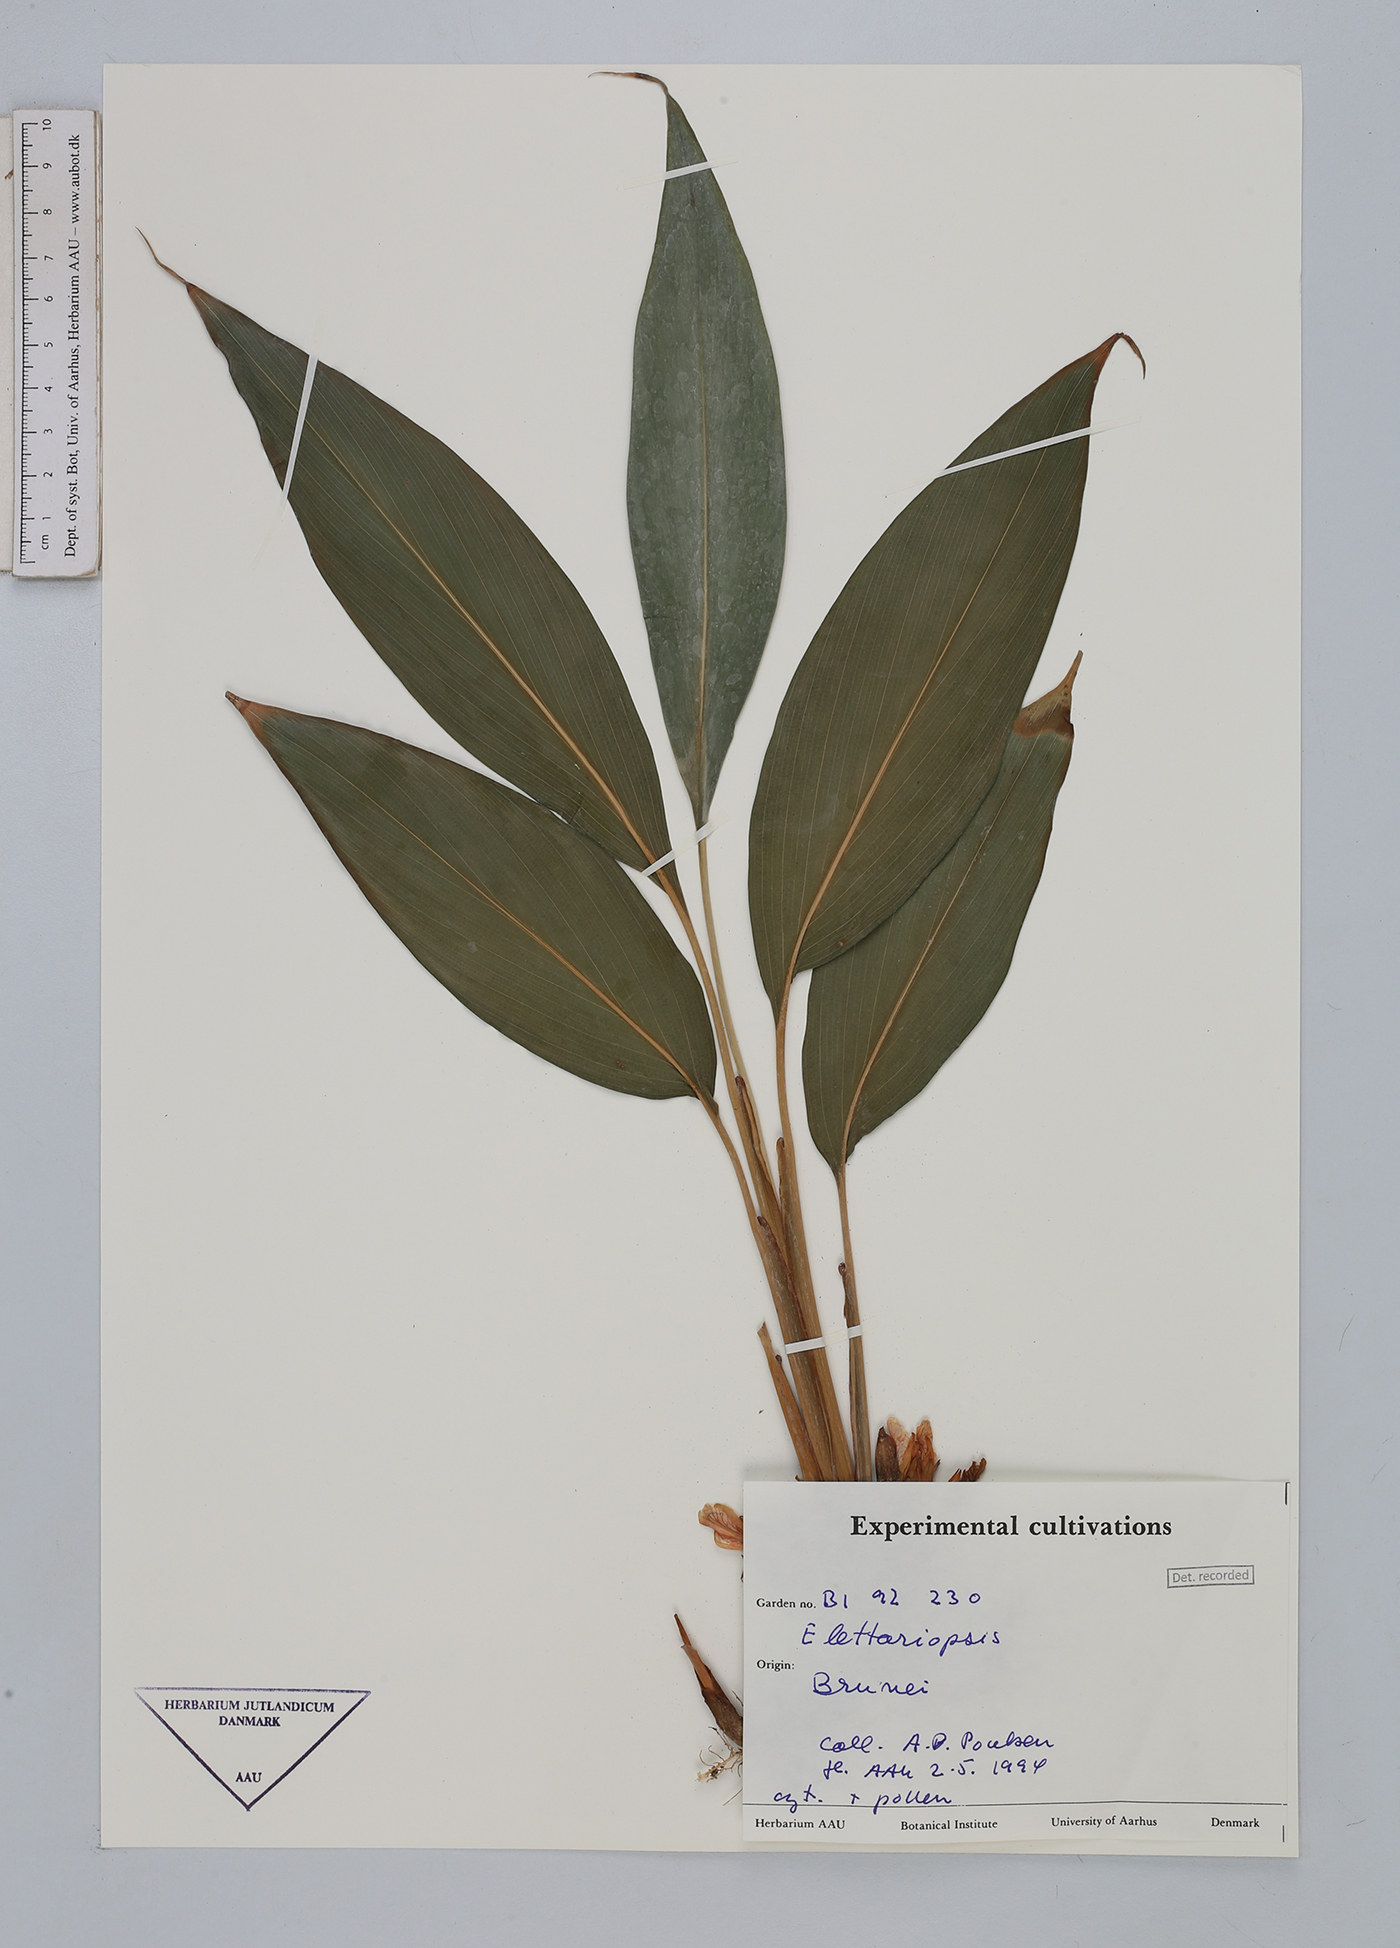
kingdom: Plantae
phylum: Tracheophyta
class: Liliopsida
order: Zingiberales
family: Zingiberaceae
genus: Amomum
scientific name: Amomum
